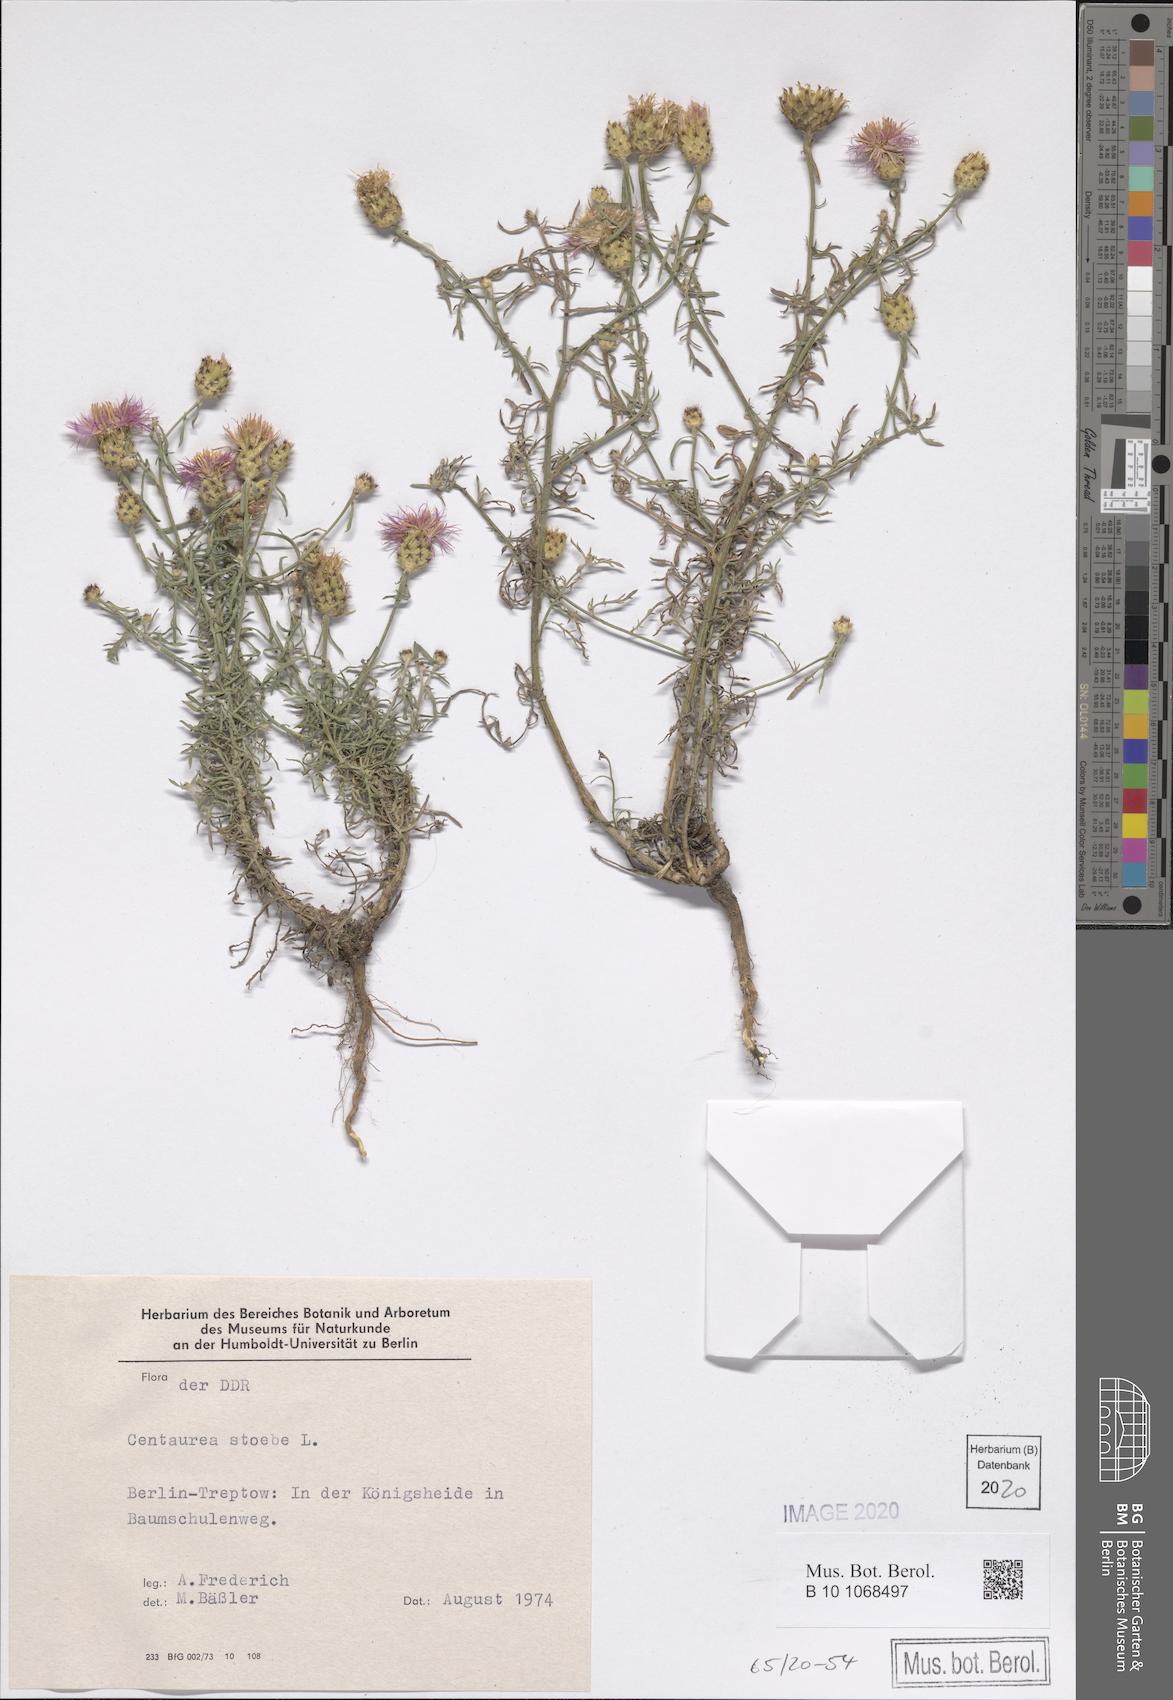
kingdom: Plantae
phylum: Tracheophyta
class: Magnoliopsida
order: Asterales
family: Asteraceae
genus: Centaurea
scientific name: Centaurea stoebe
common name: Spotted knapweed
